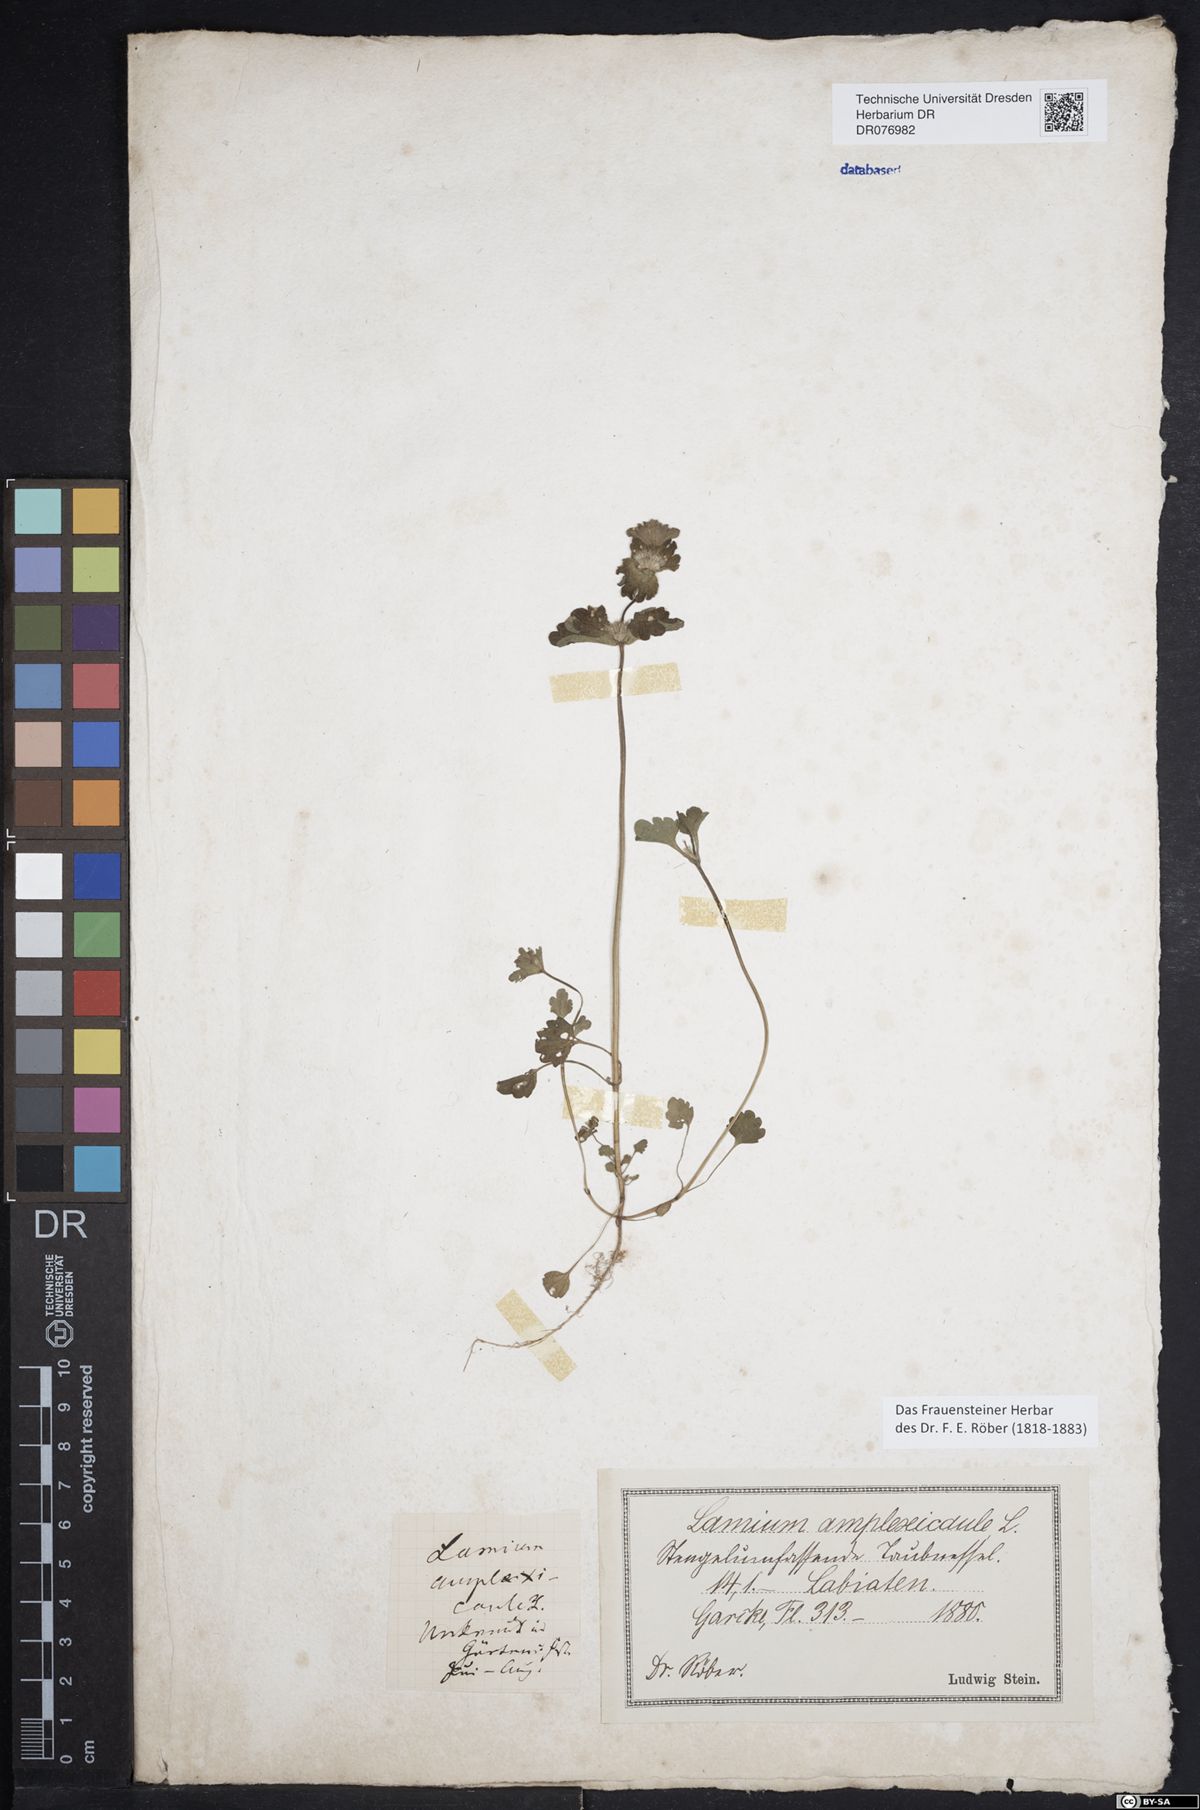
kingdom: Plantae
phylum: Tracheophyta
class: Magnoliopsida
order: Lamiales
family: Lamiaceae
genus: Lamium
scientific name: Lamium amplexicaule
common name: Henbit dead-nettle
